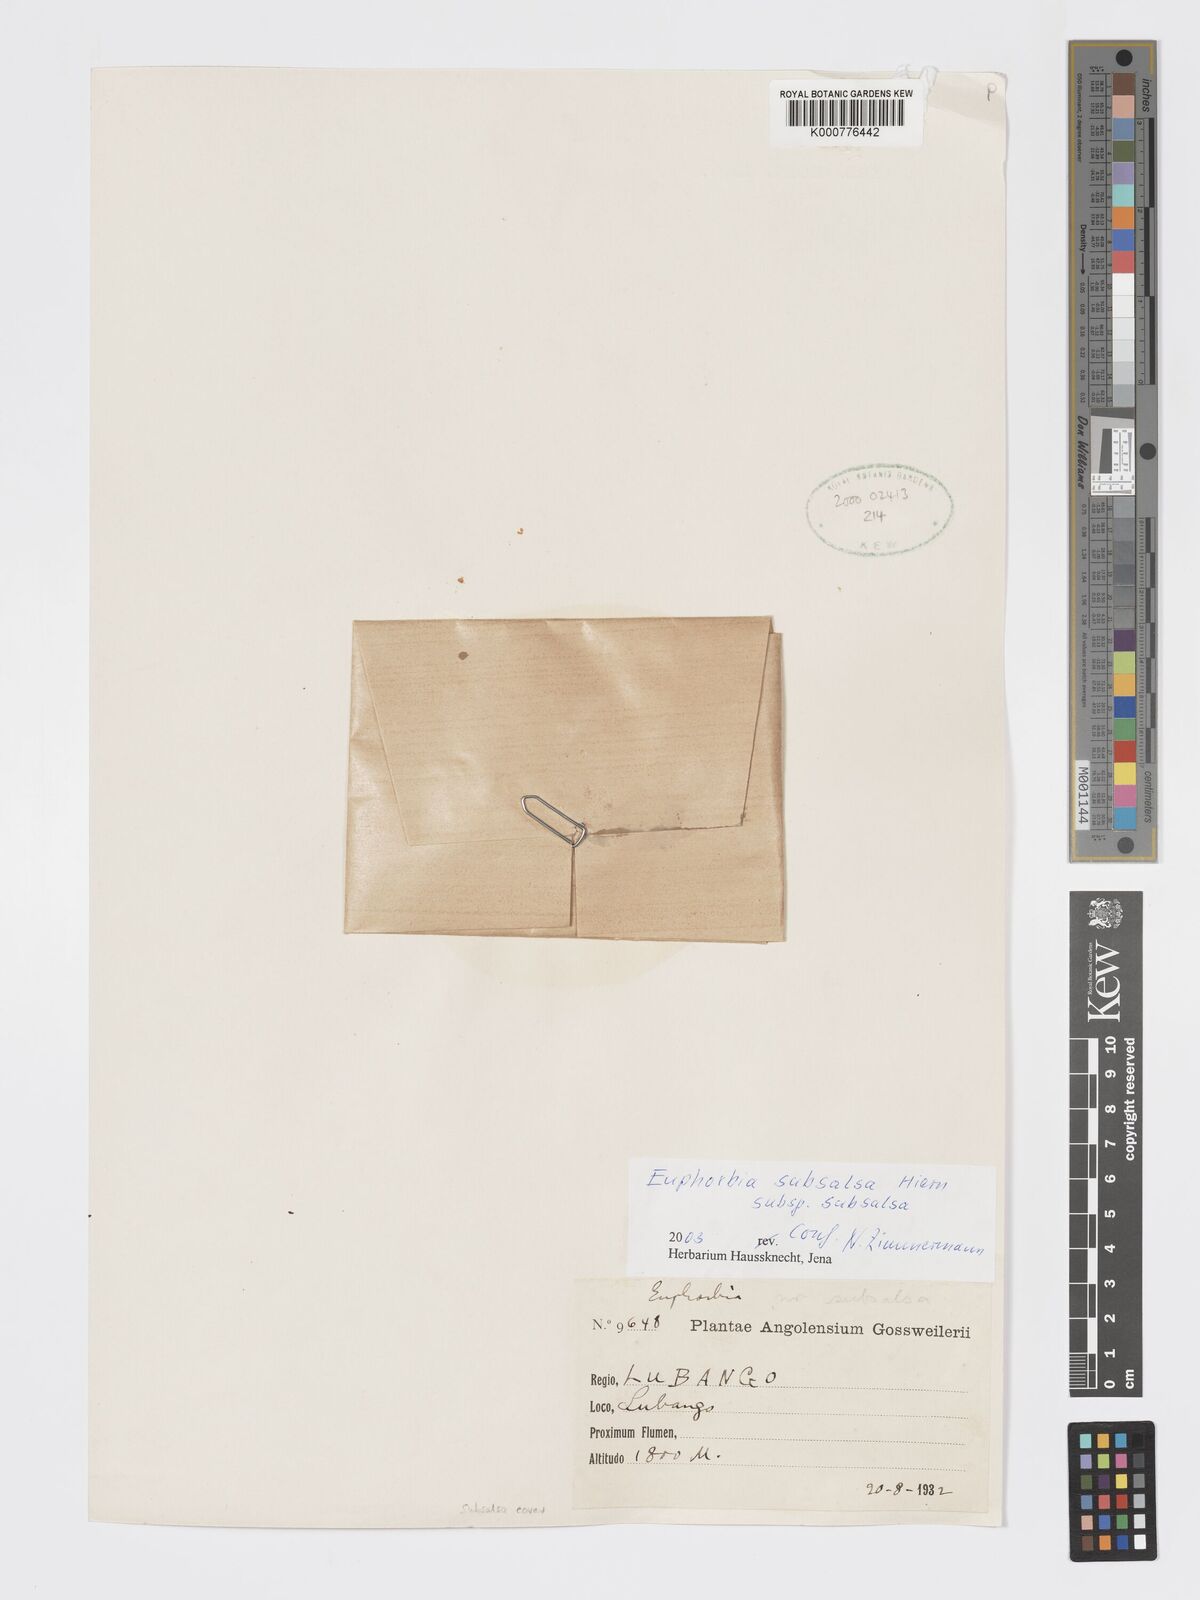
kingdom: Plantae
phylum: Tracheophyta
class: Magnoliopsida
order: Malpighiales
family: Euphorbiaceae
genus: Euphorbia
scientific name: Euphorbia subsalsa
